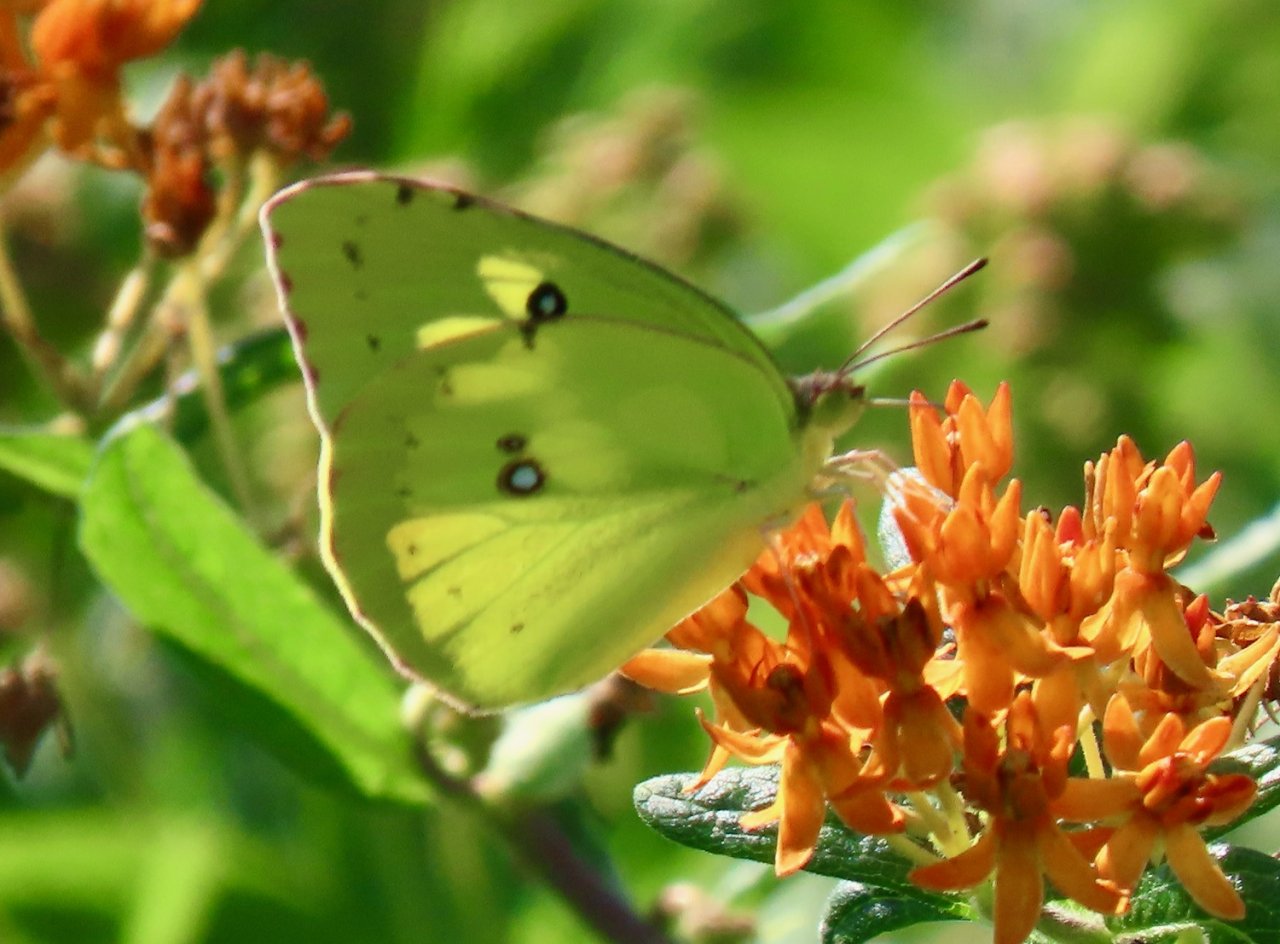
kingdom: Animalia
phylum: Arthropoda
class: Insecta
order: Lepidoptera
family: Pieridae
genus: Zerene
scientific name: Zerene cesonia
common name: Southern Dogface
